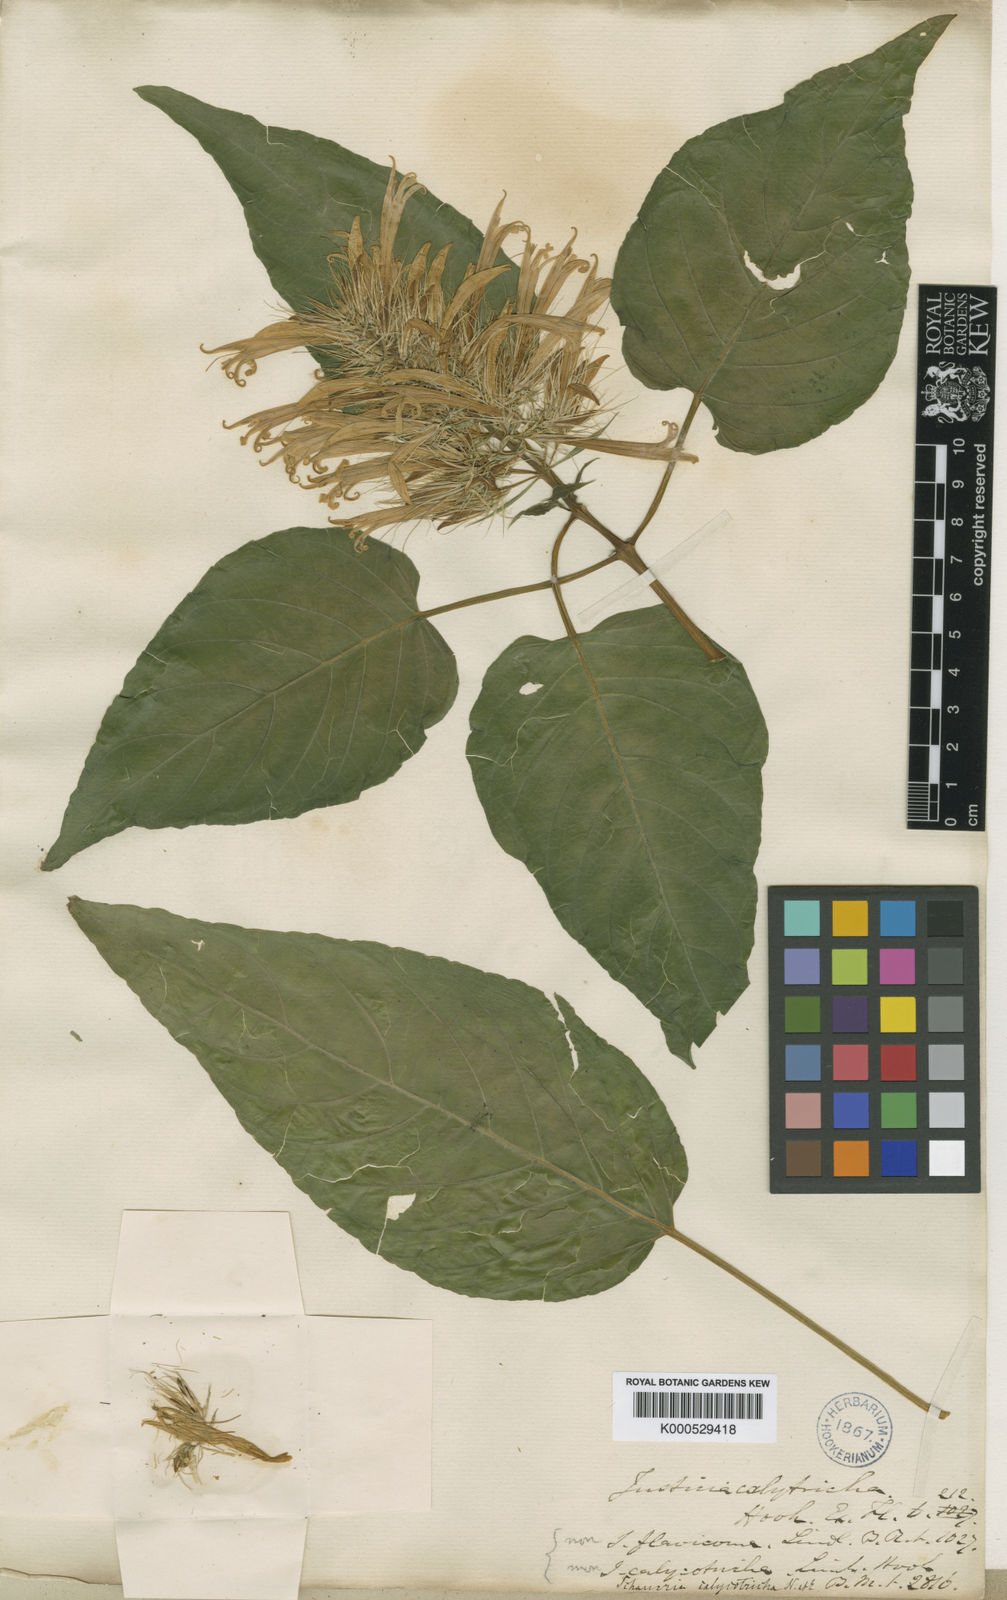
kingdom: Plantae
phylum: Tracheophyta
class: Magnoliopsida
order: Lamiales
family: Acanthaceae
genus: Schaueria
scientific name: Schaueria calytricha
